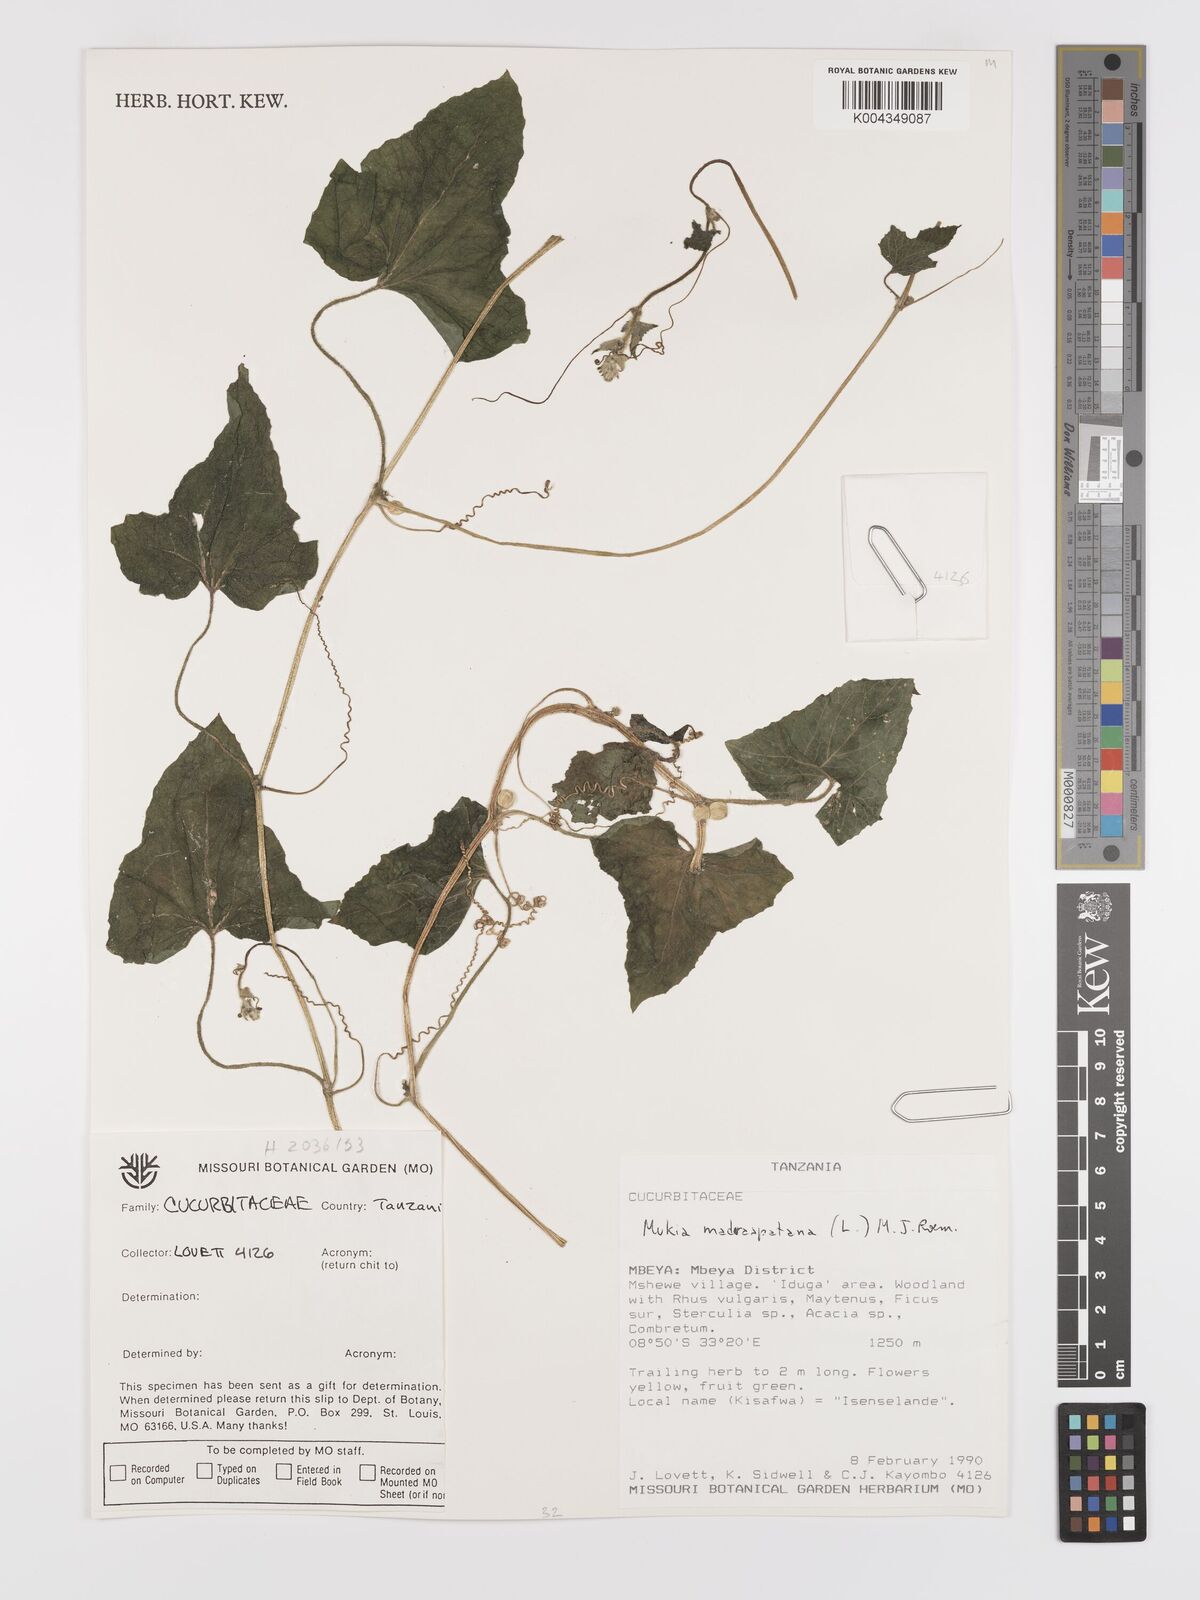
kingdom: Plantae
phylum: Tracheophyta
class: Magnoliopsida
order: Cucurbitales
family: Cucurbitaceae
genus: Cucumis
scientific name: Cucumis maderaspatanus
